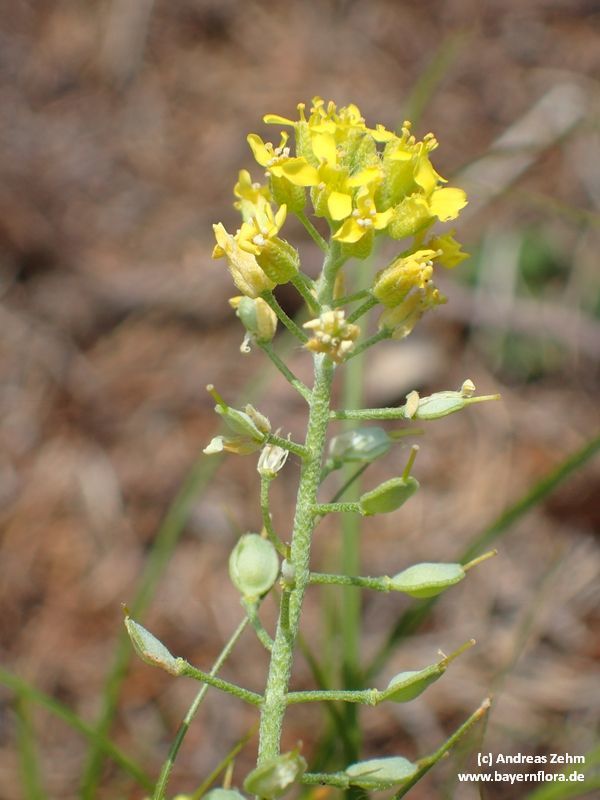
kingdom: Plantae
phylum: Tracheophyta
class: Magnoliopsida
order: Brassicales
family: Brassicaceae
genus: Alyssum
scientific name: Alyssum gmelinii
